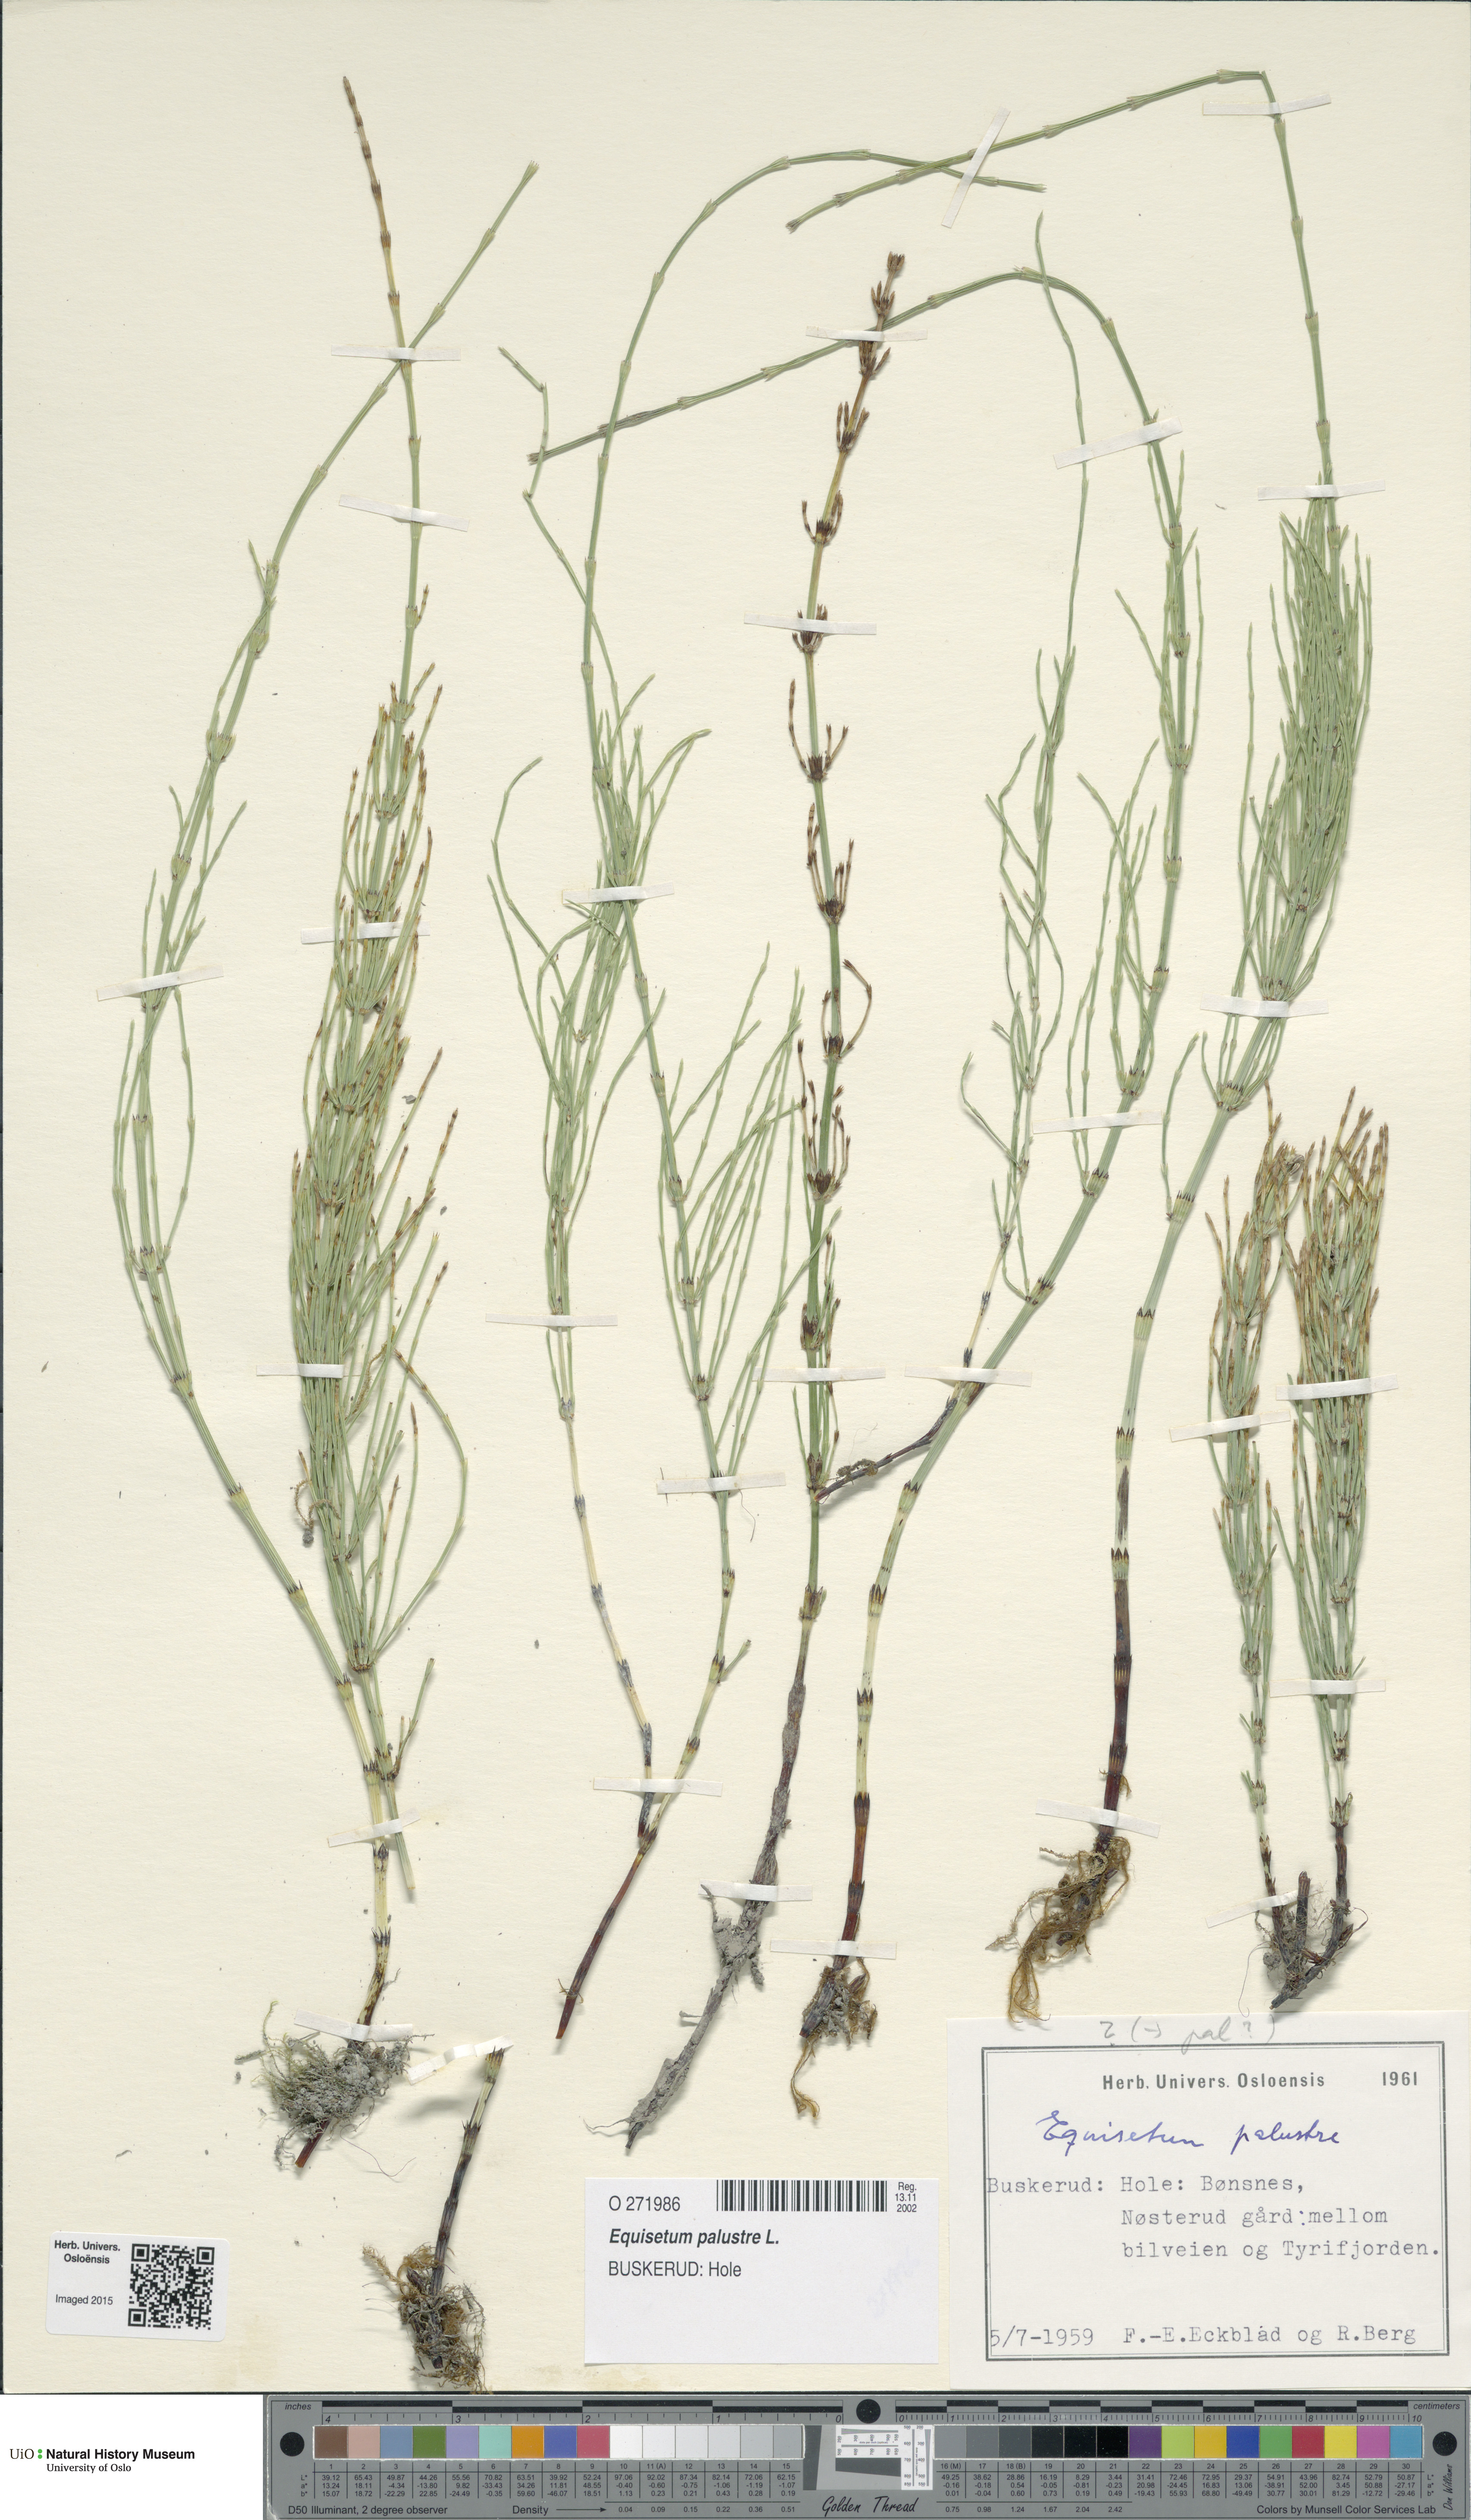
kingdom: Plantae
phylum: Tracheophyta
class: Polypodiopsida
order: Equisetales
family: Equisetaceae
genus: Equisetum
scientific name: Equisetum palustre
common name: Marsh horsetail
